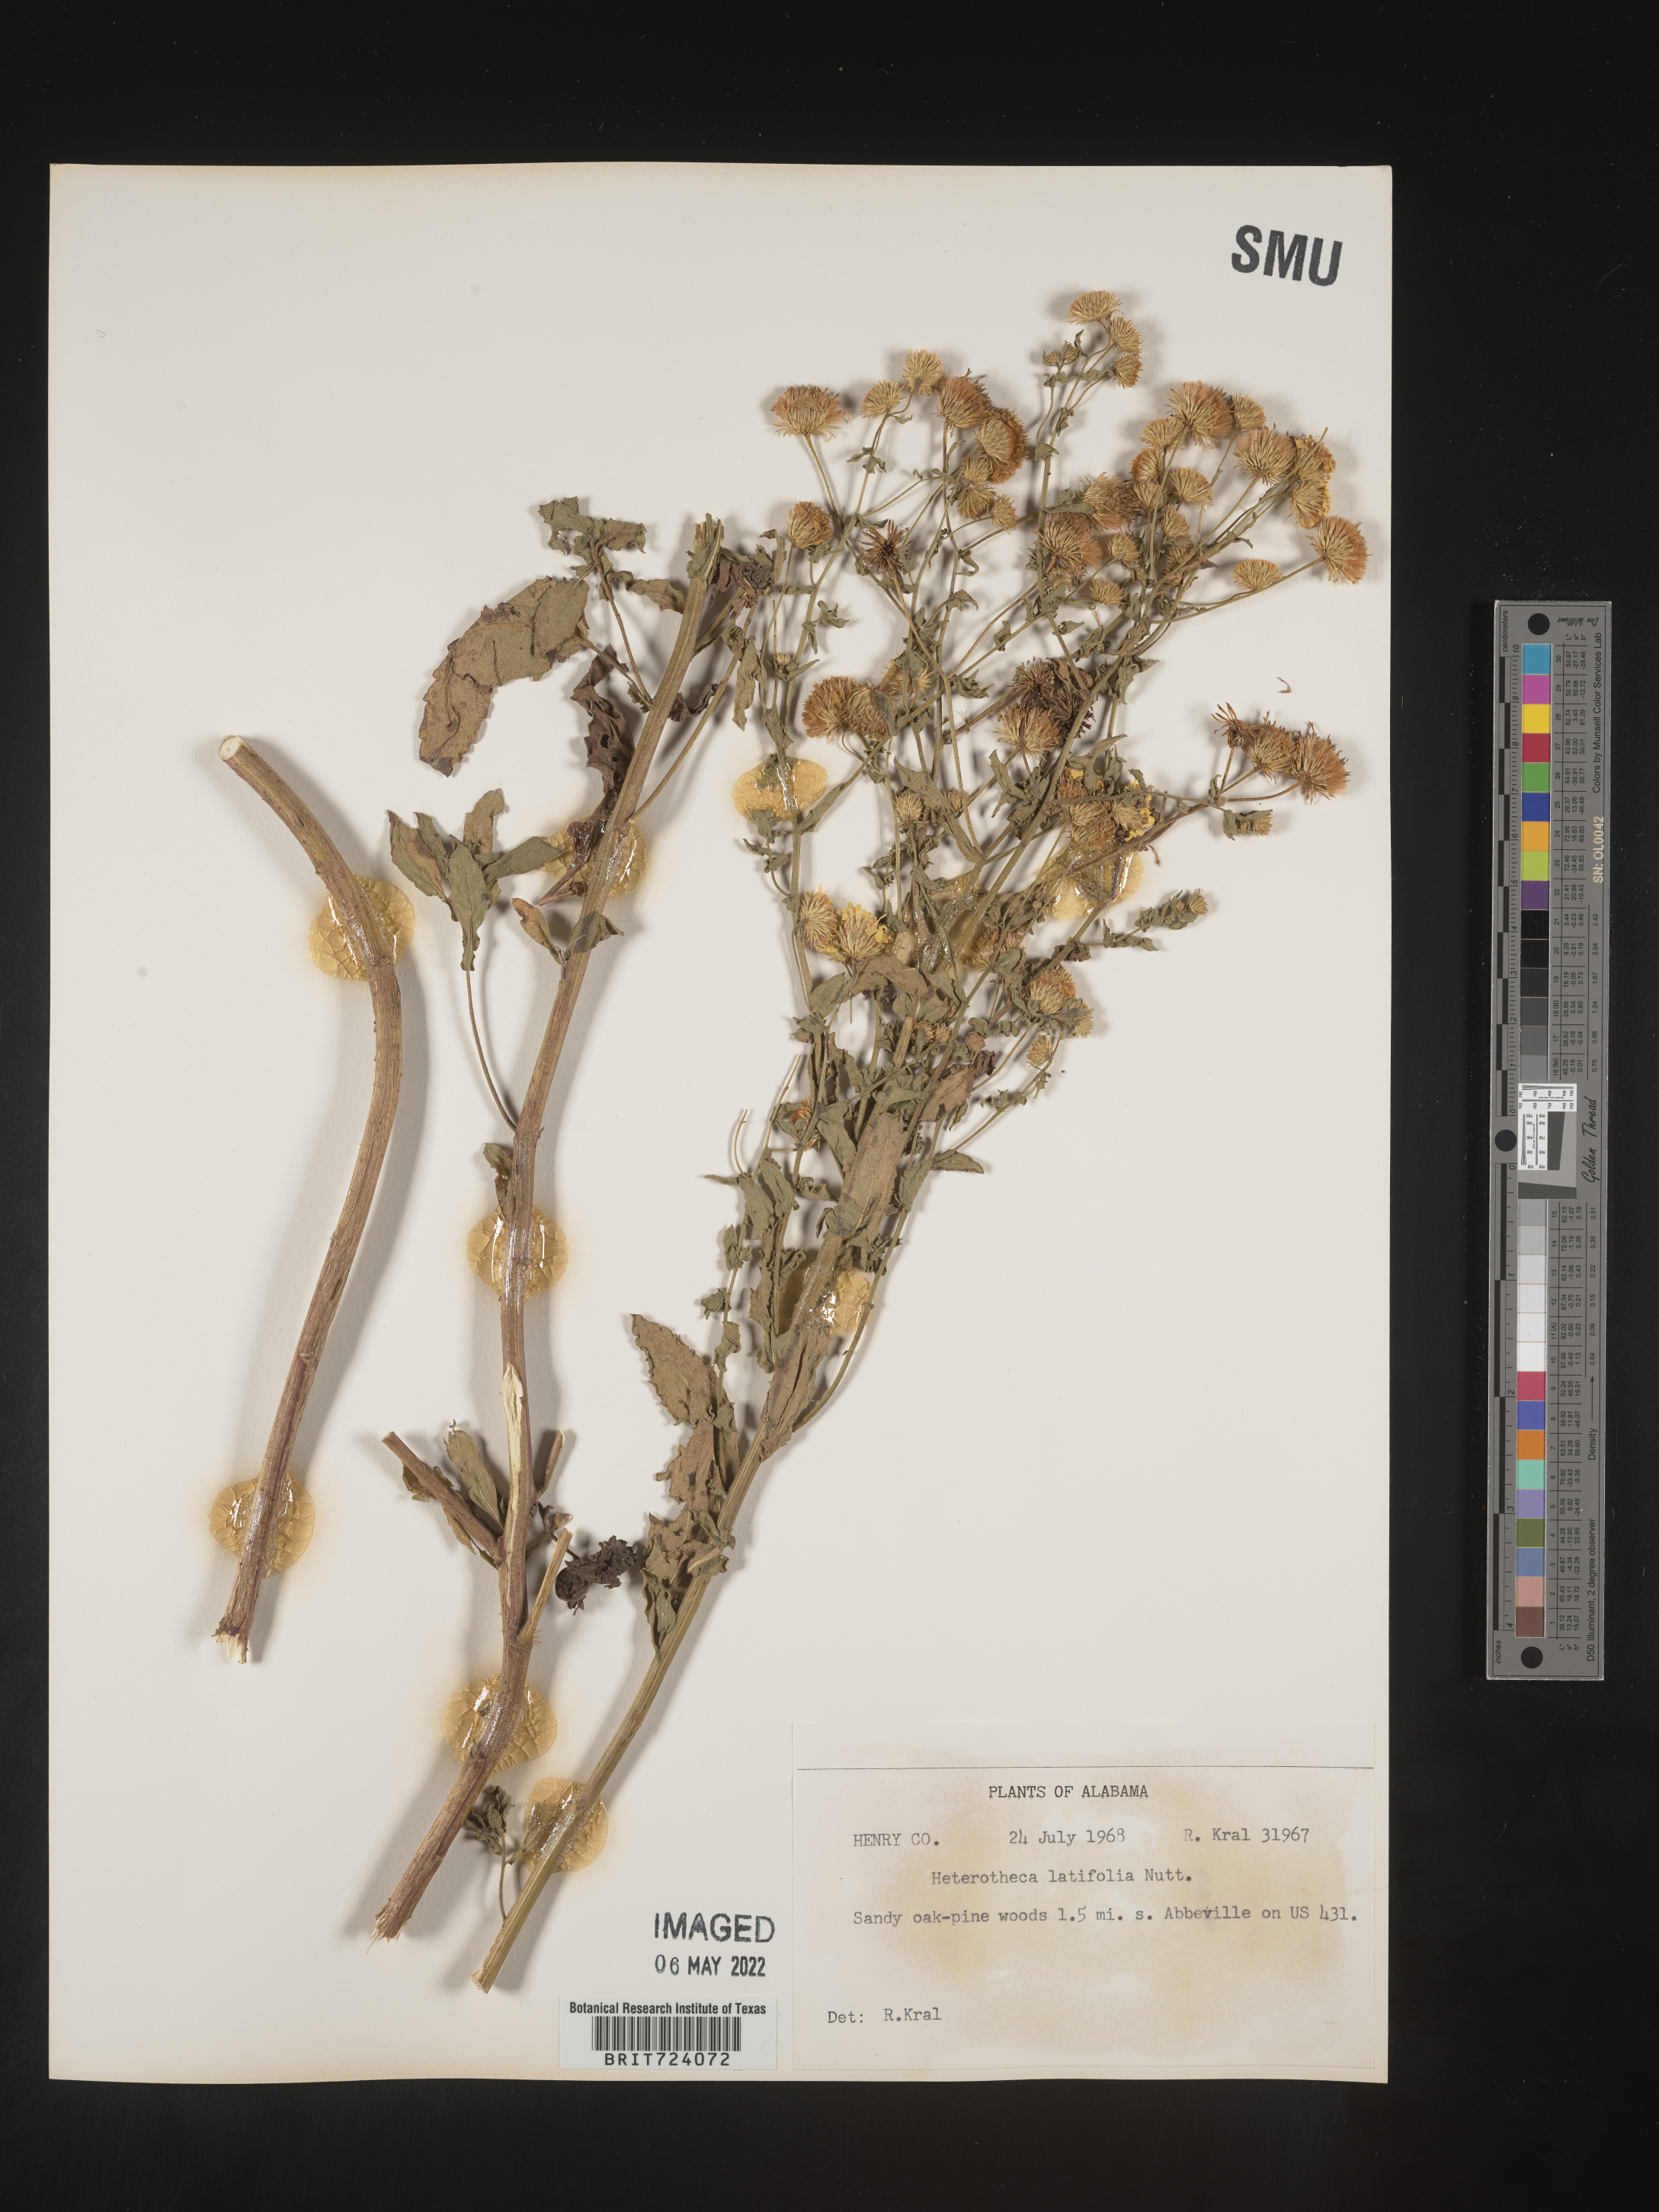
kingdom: Plantae
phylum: Tracheophyta
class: Magnoliopsida
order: Asterales
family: Asteraceae
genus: Heterotheca
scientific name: Heterotheca subaxillaris
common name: Camphorweed
